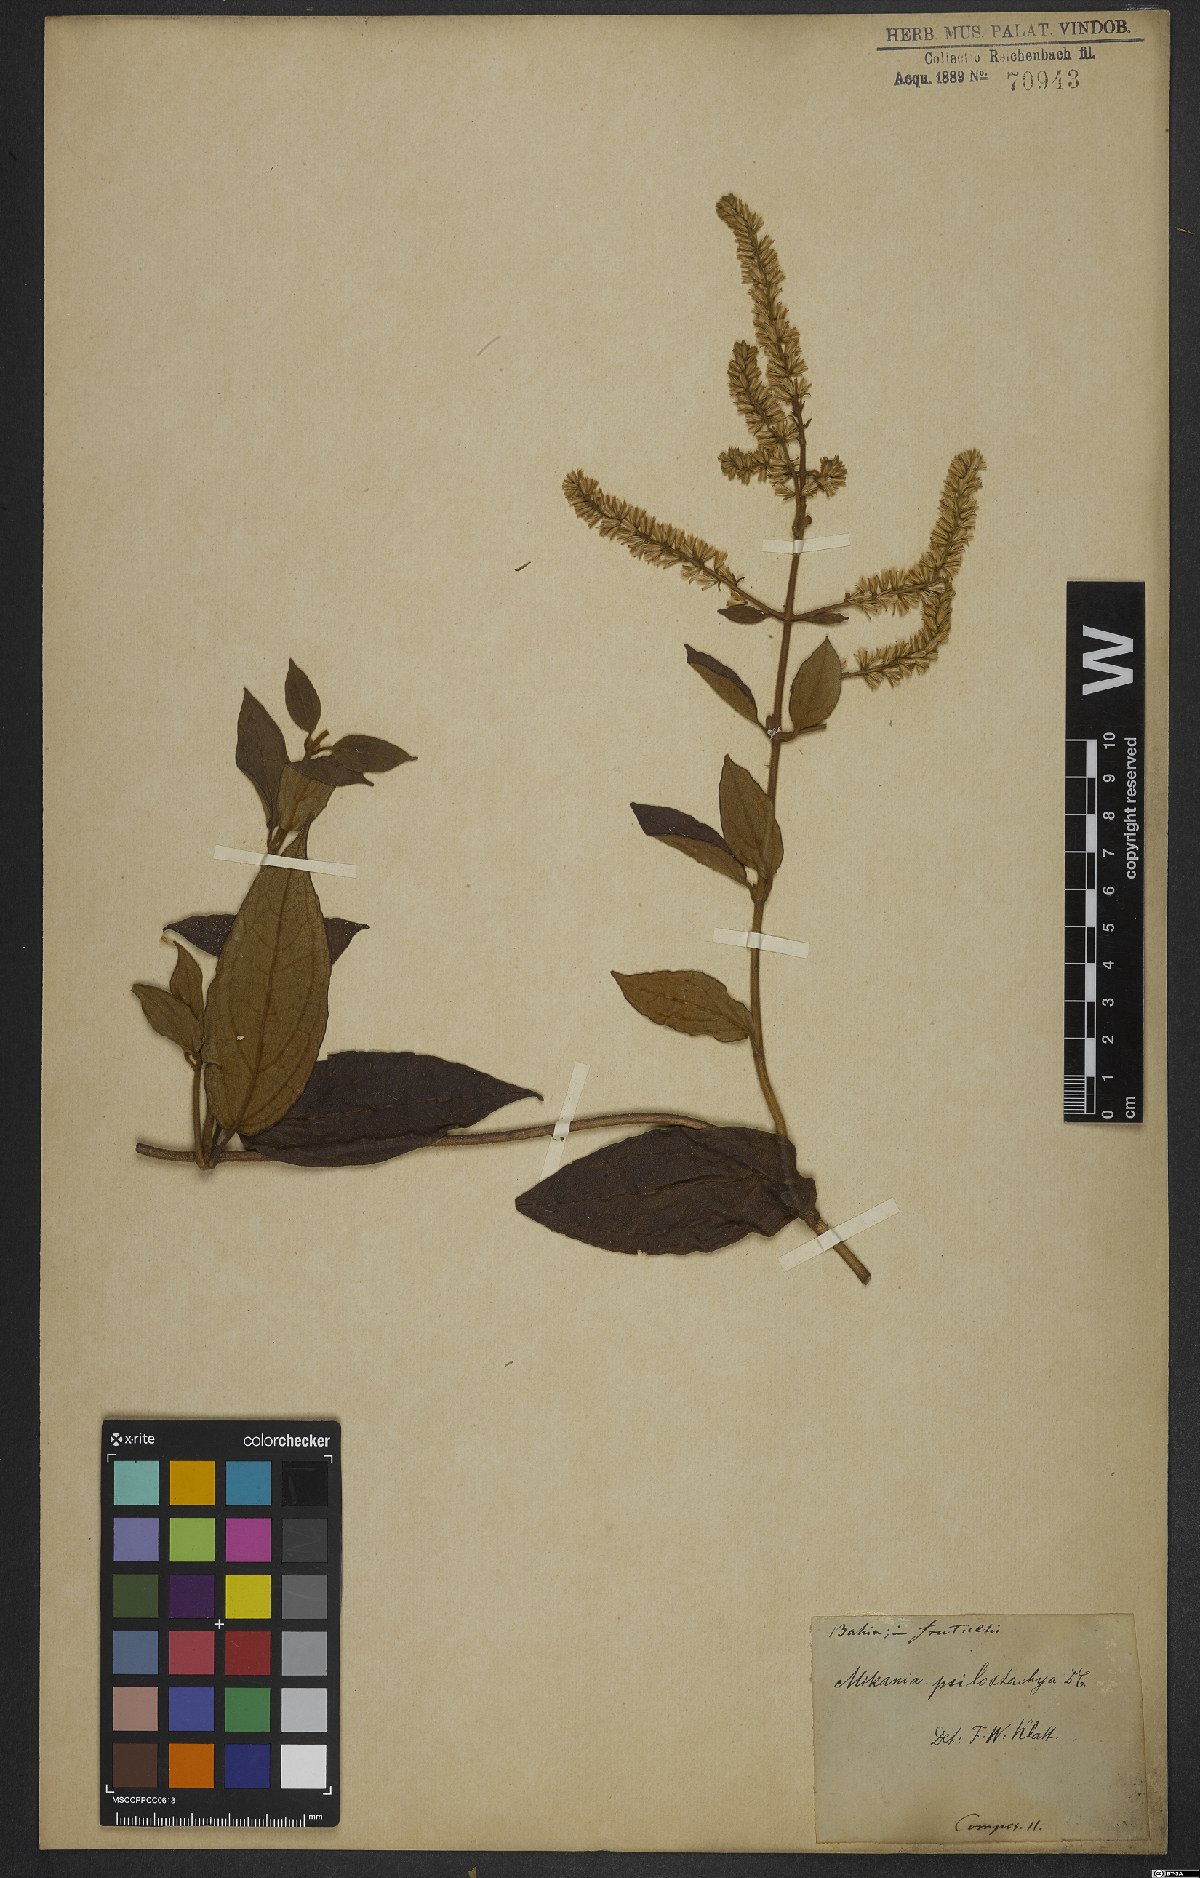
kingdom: Plantae
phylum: Tracheophyta
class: Magnoliopsida
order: Asterales
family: Asteraceae
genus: Mikania
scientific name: Mikania psilostachya
